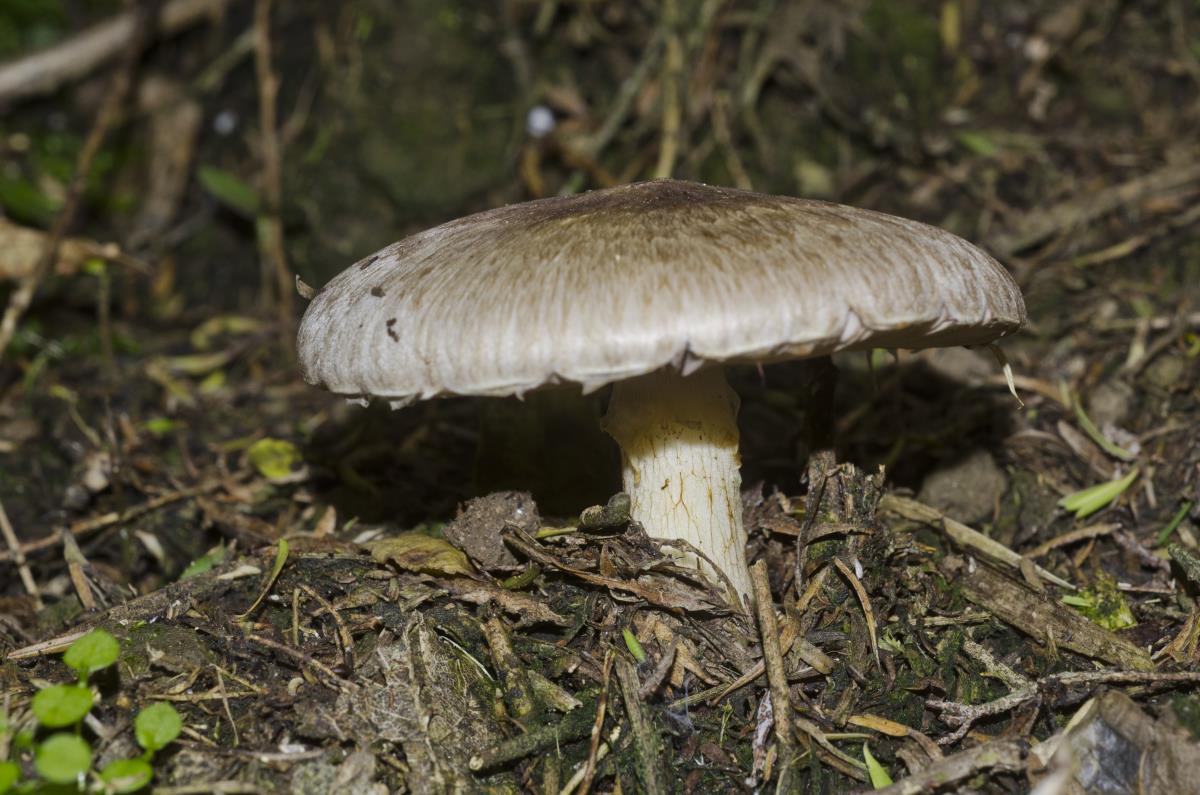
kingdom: Fungi
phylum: Basidiomycota
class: Agaricomycetes
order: Agaricales
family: Agaricaceae
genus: Agaricus
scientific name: Agaricus
